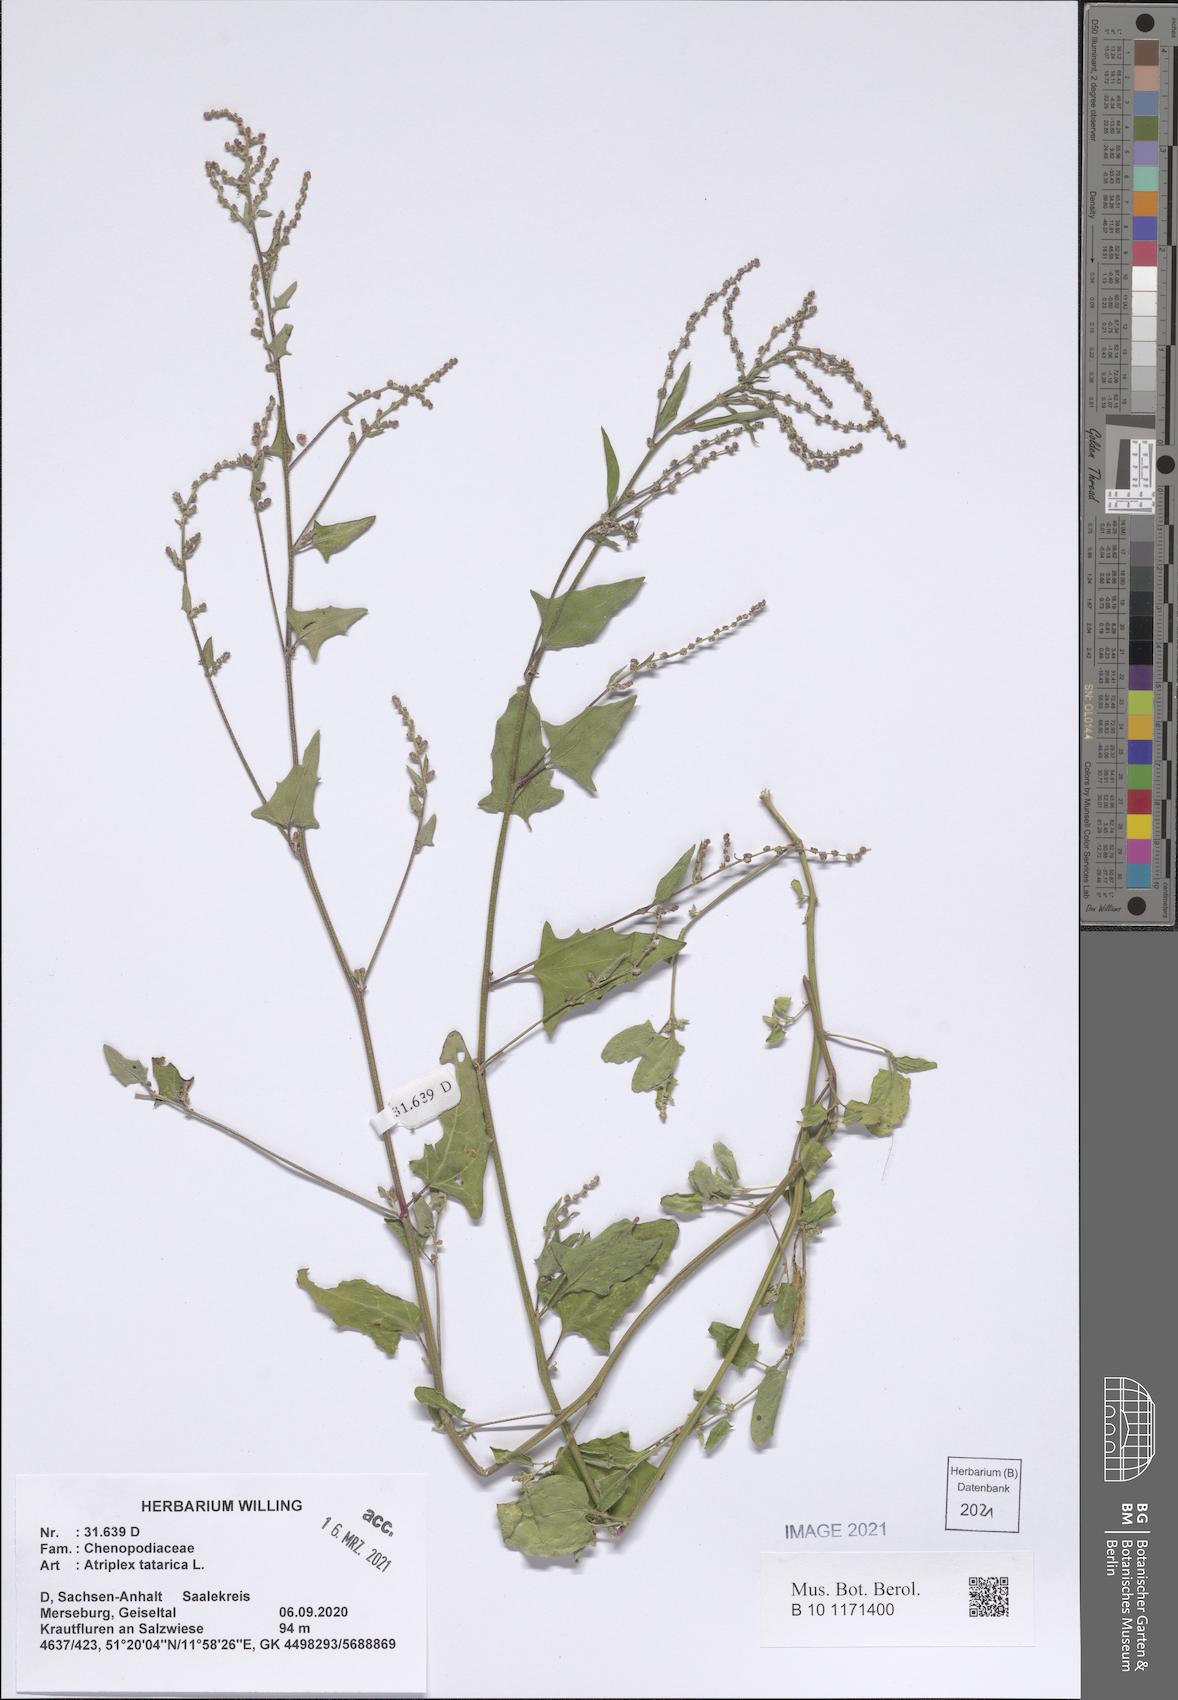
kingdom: Plantae
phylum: Tracheophyta
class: Magnoliopsida
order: Caryophyllales
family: Amaranthaceae
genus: Atriplex
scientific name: Atriplex tatarica
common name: Tatarian orache
